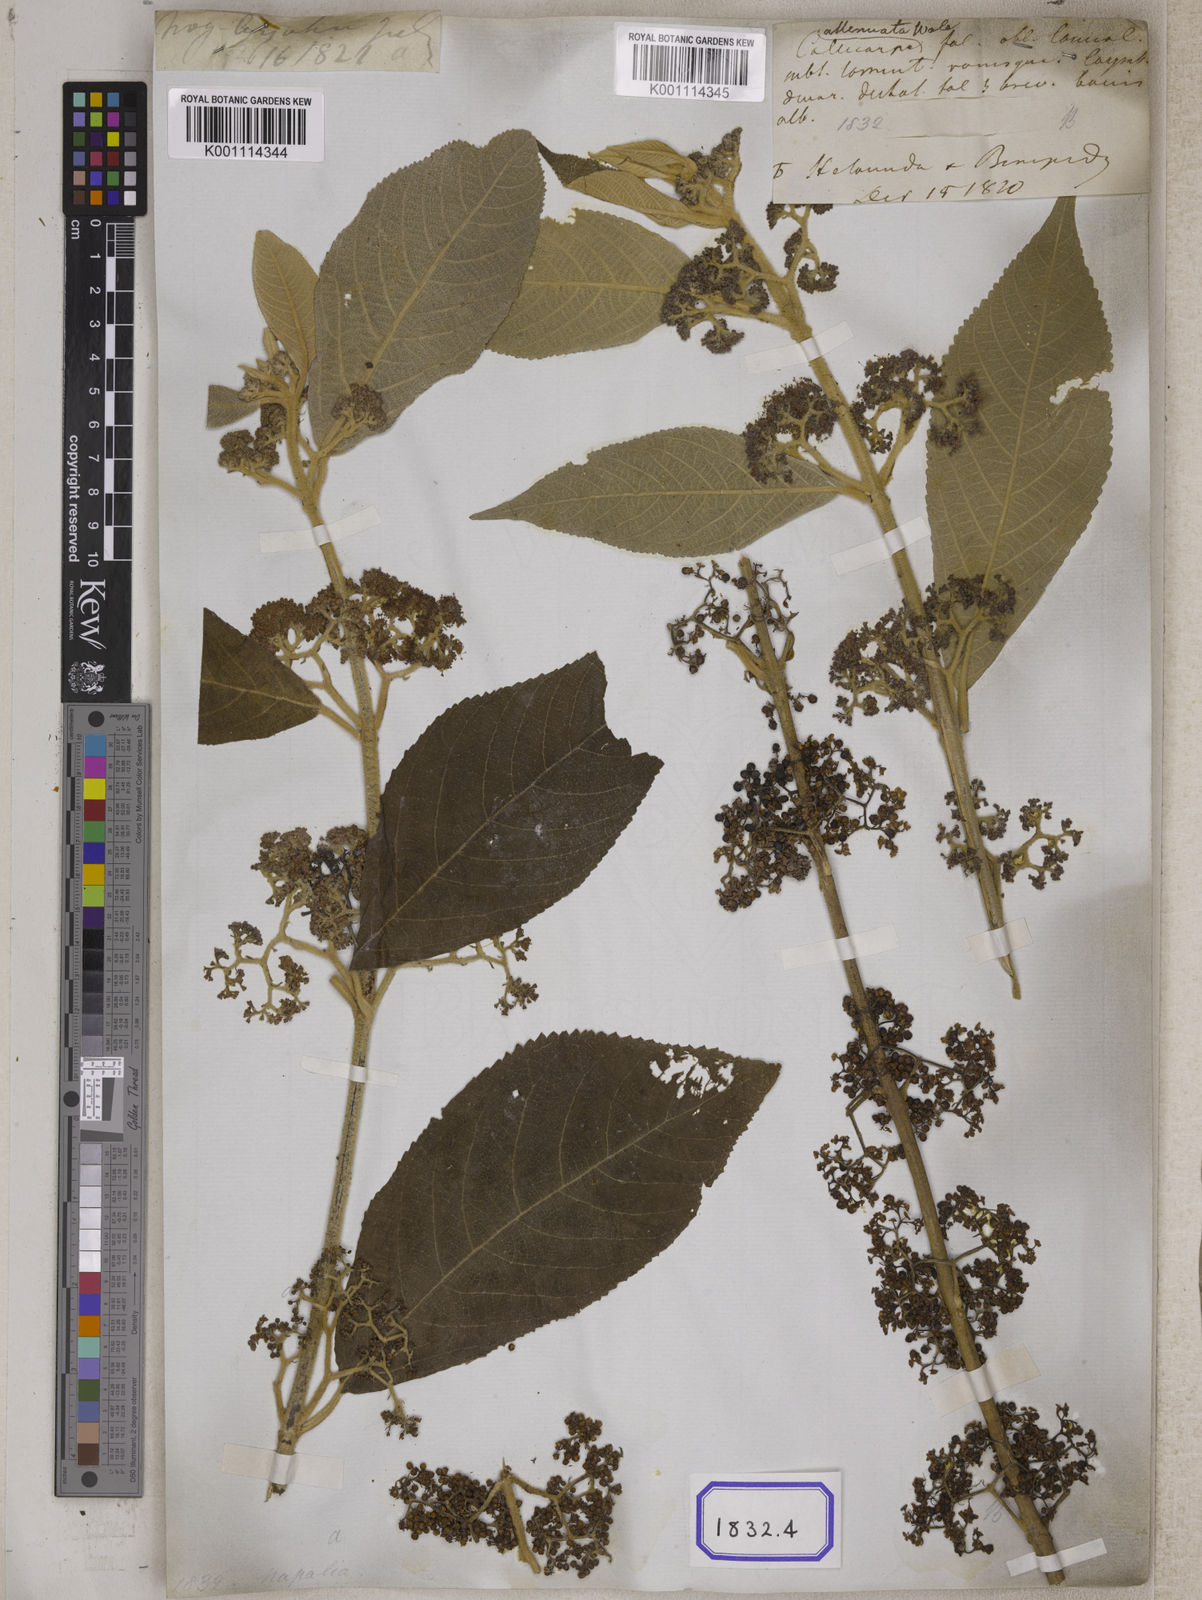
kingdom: Plantae
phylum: Tracheophyta
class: Magnoliopsida
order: Lamiales
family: Lamiaceae
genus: Callicarpa
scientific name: Callicarpa macrophylla
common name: Urn-fruit beauty-berry
